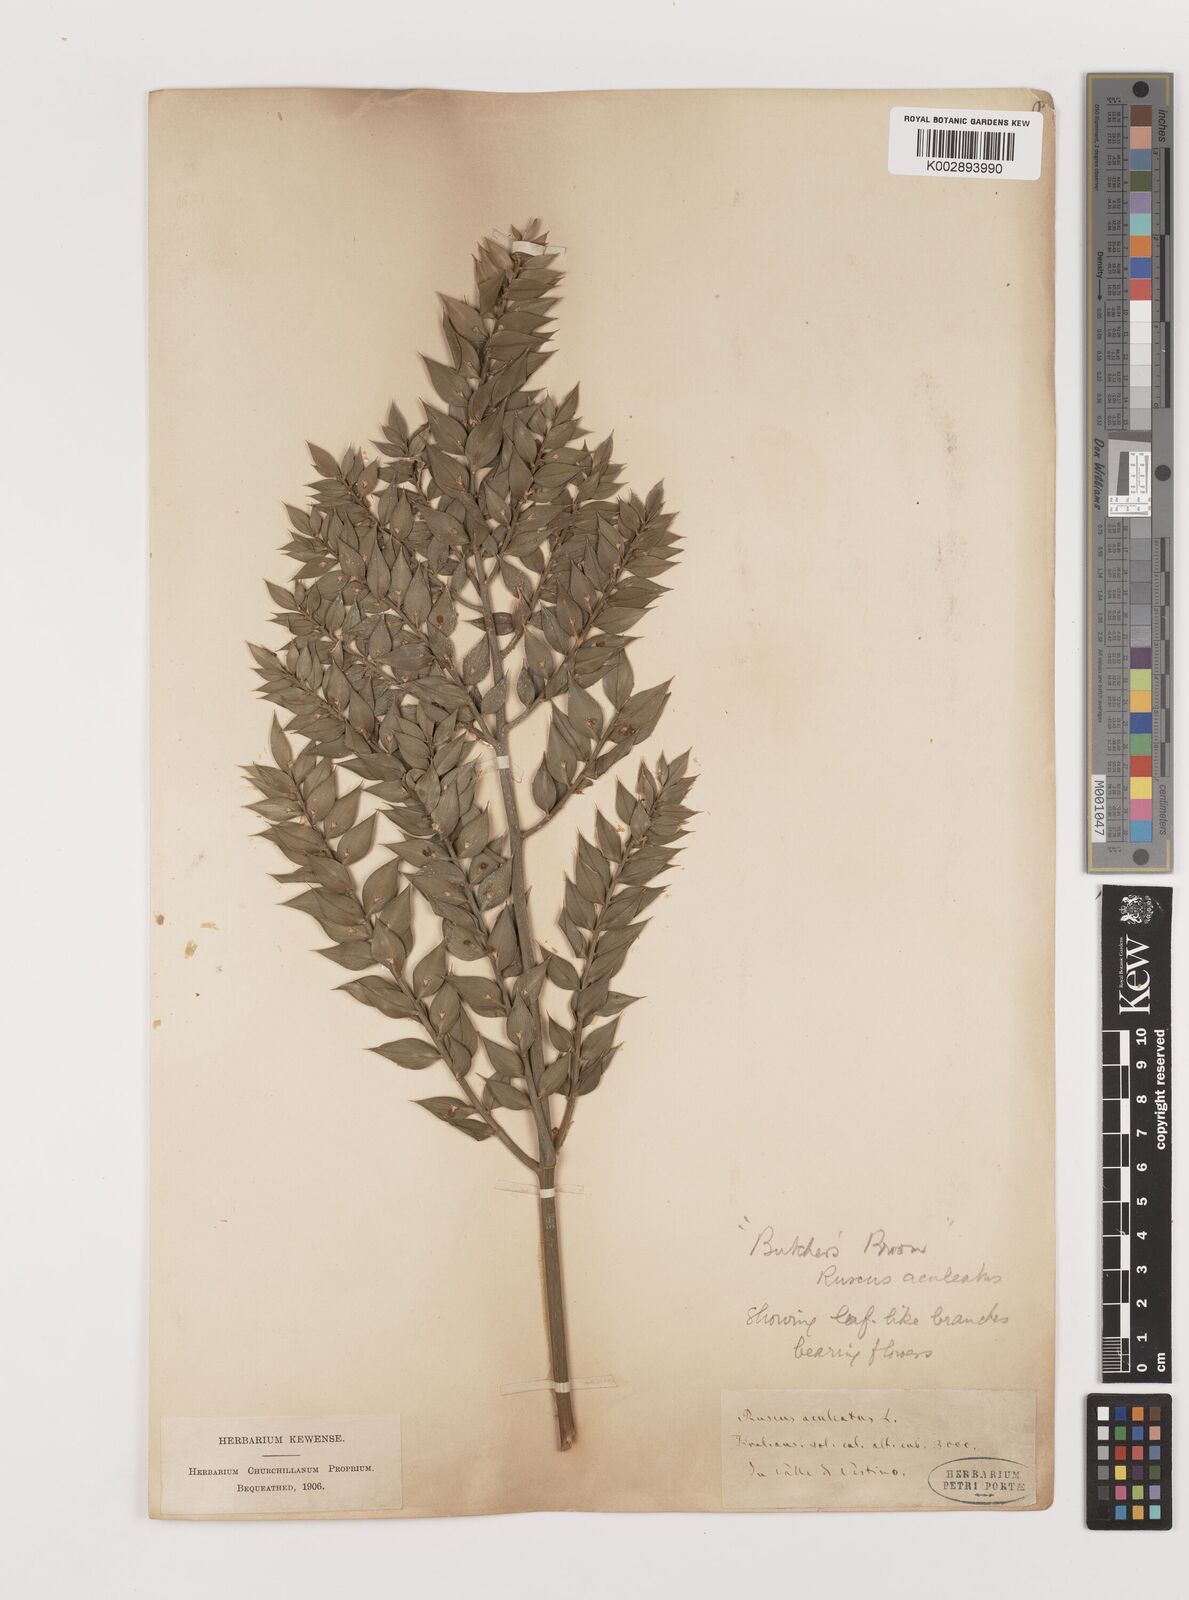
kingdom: Plantae
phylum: Tracheophyta
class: Liliopsida
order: Asparagales
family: Asparagaceae
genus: Ruscus
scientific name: Ruscus aculeatus
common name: Butcher's-broom
